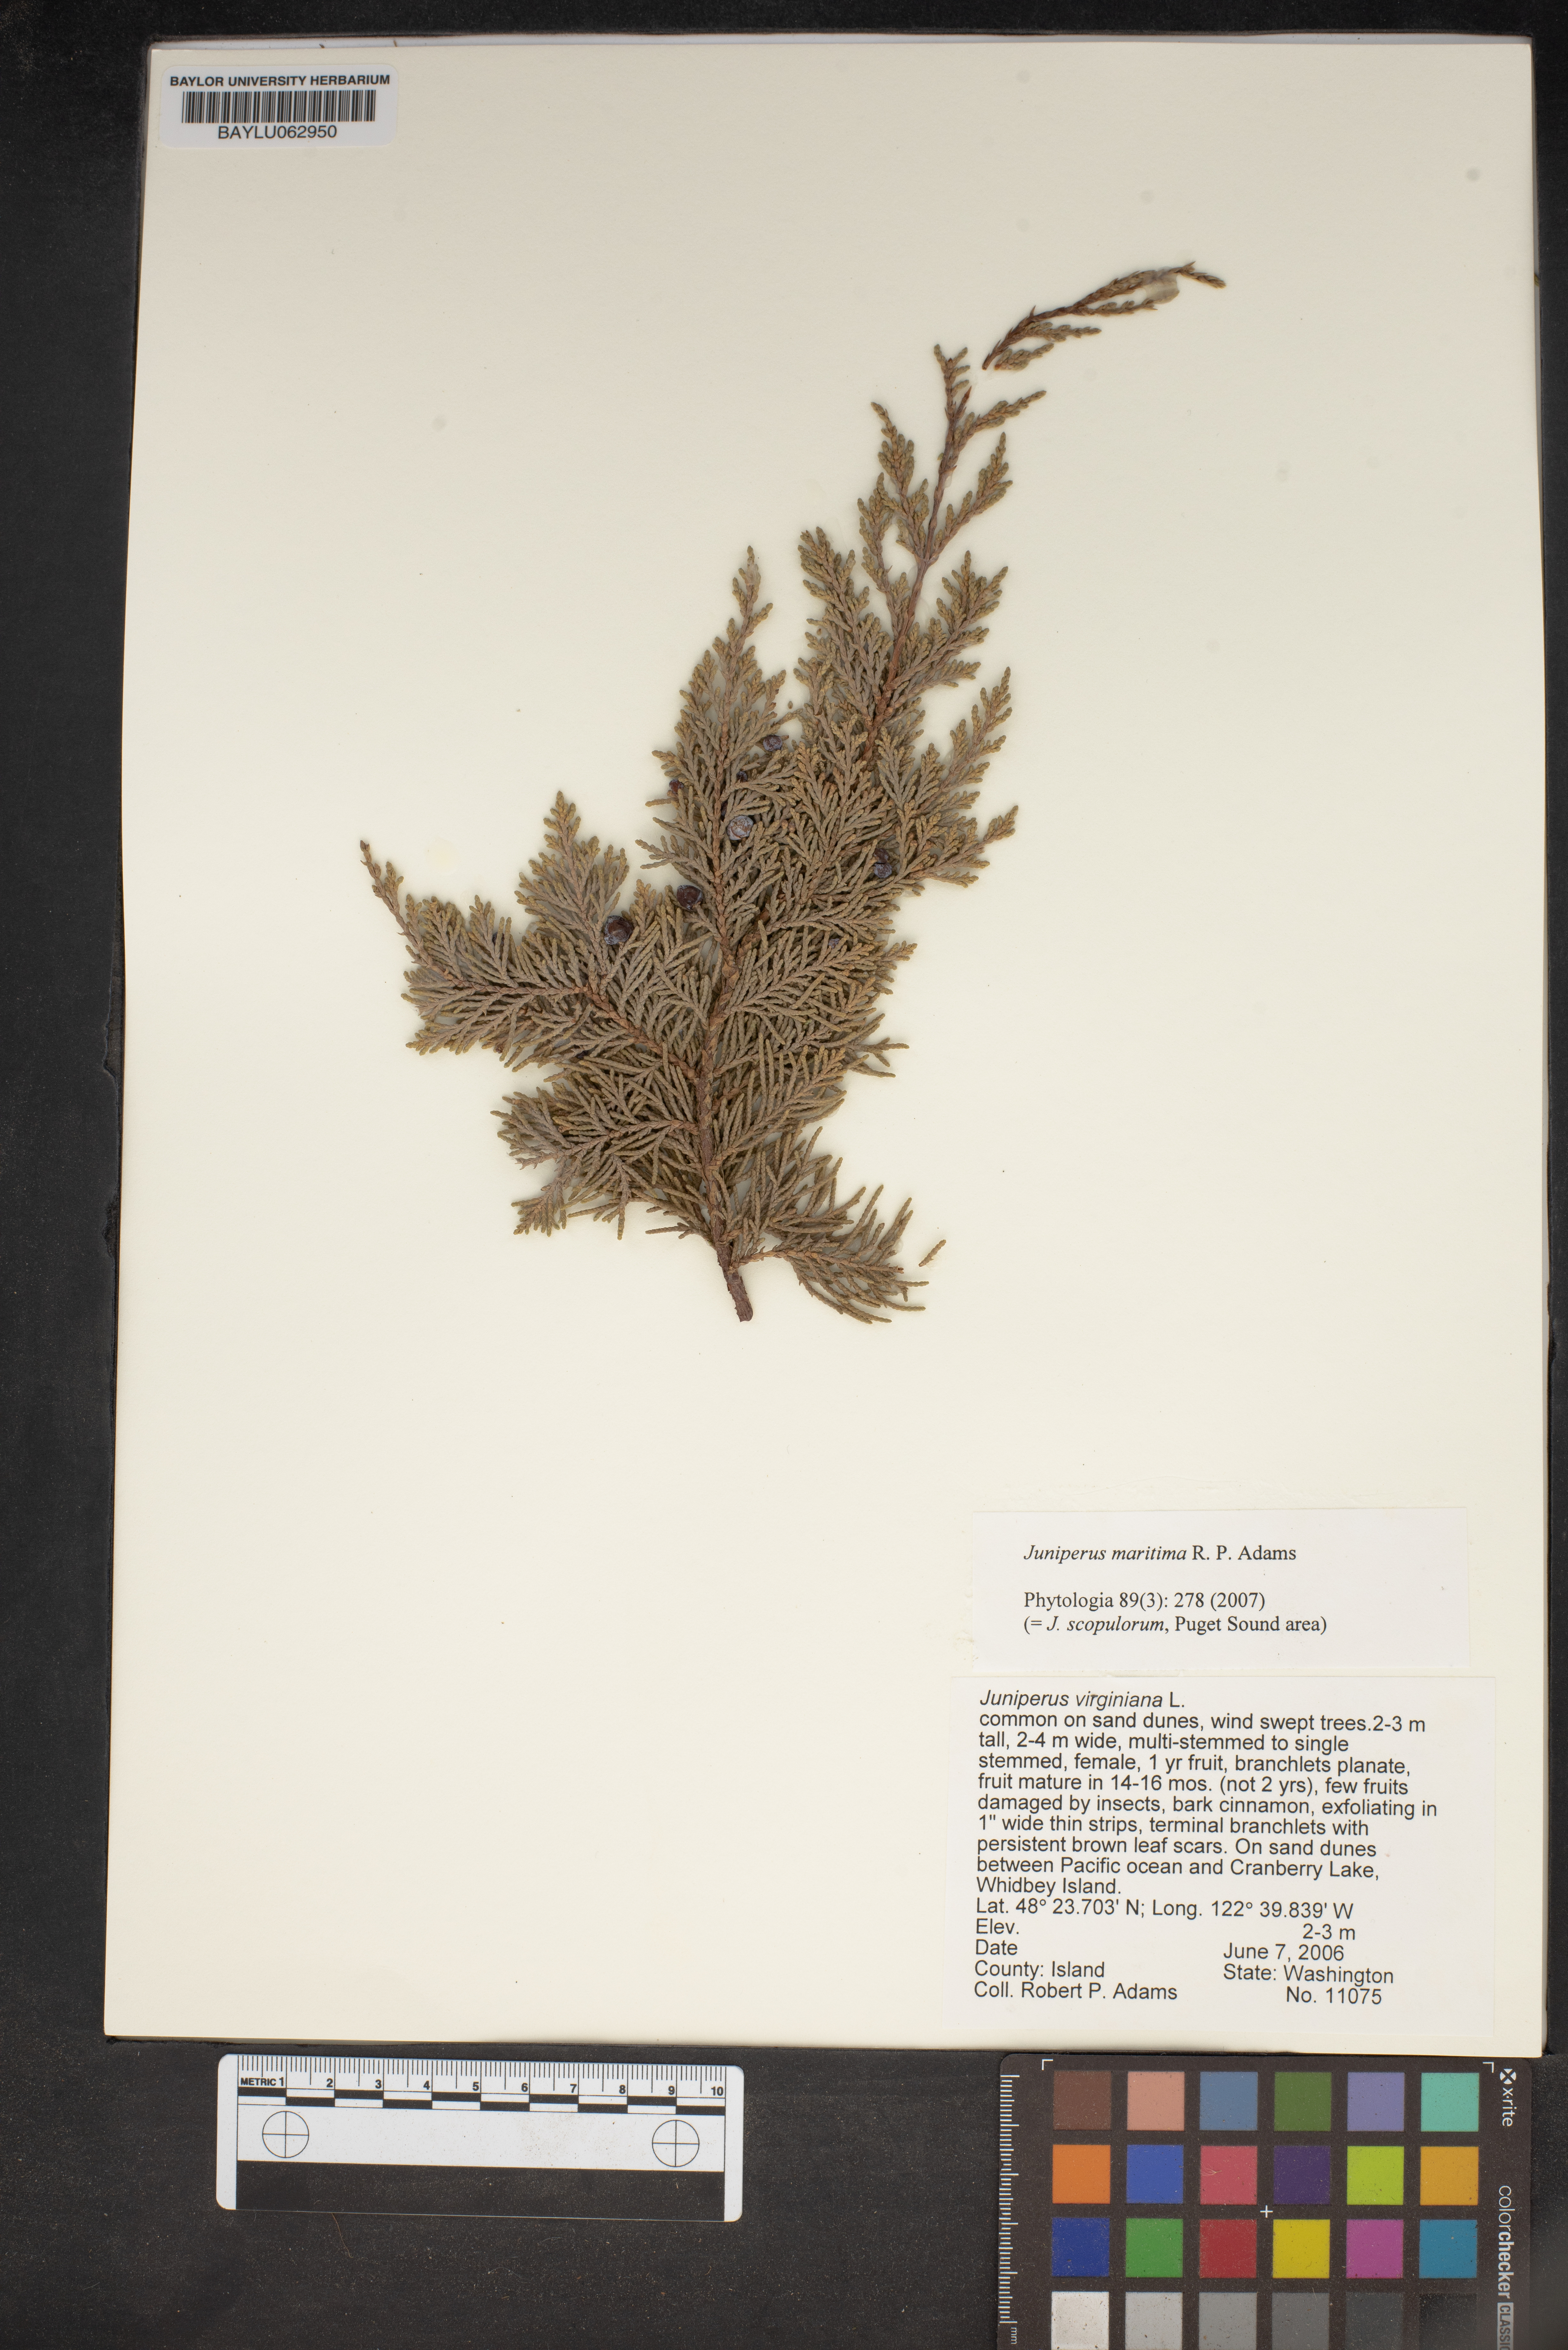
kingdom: Plantae
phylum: Tracheophyta
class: Pinopsida
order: Pinales
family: Cupressaceae
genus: Juniperus
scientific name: Juniperus scopulorum
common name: Rocky mountain juniper
